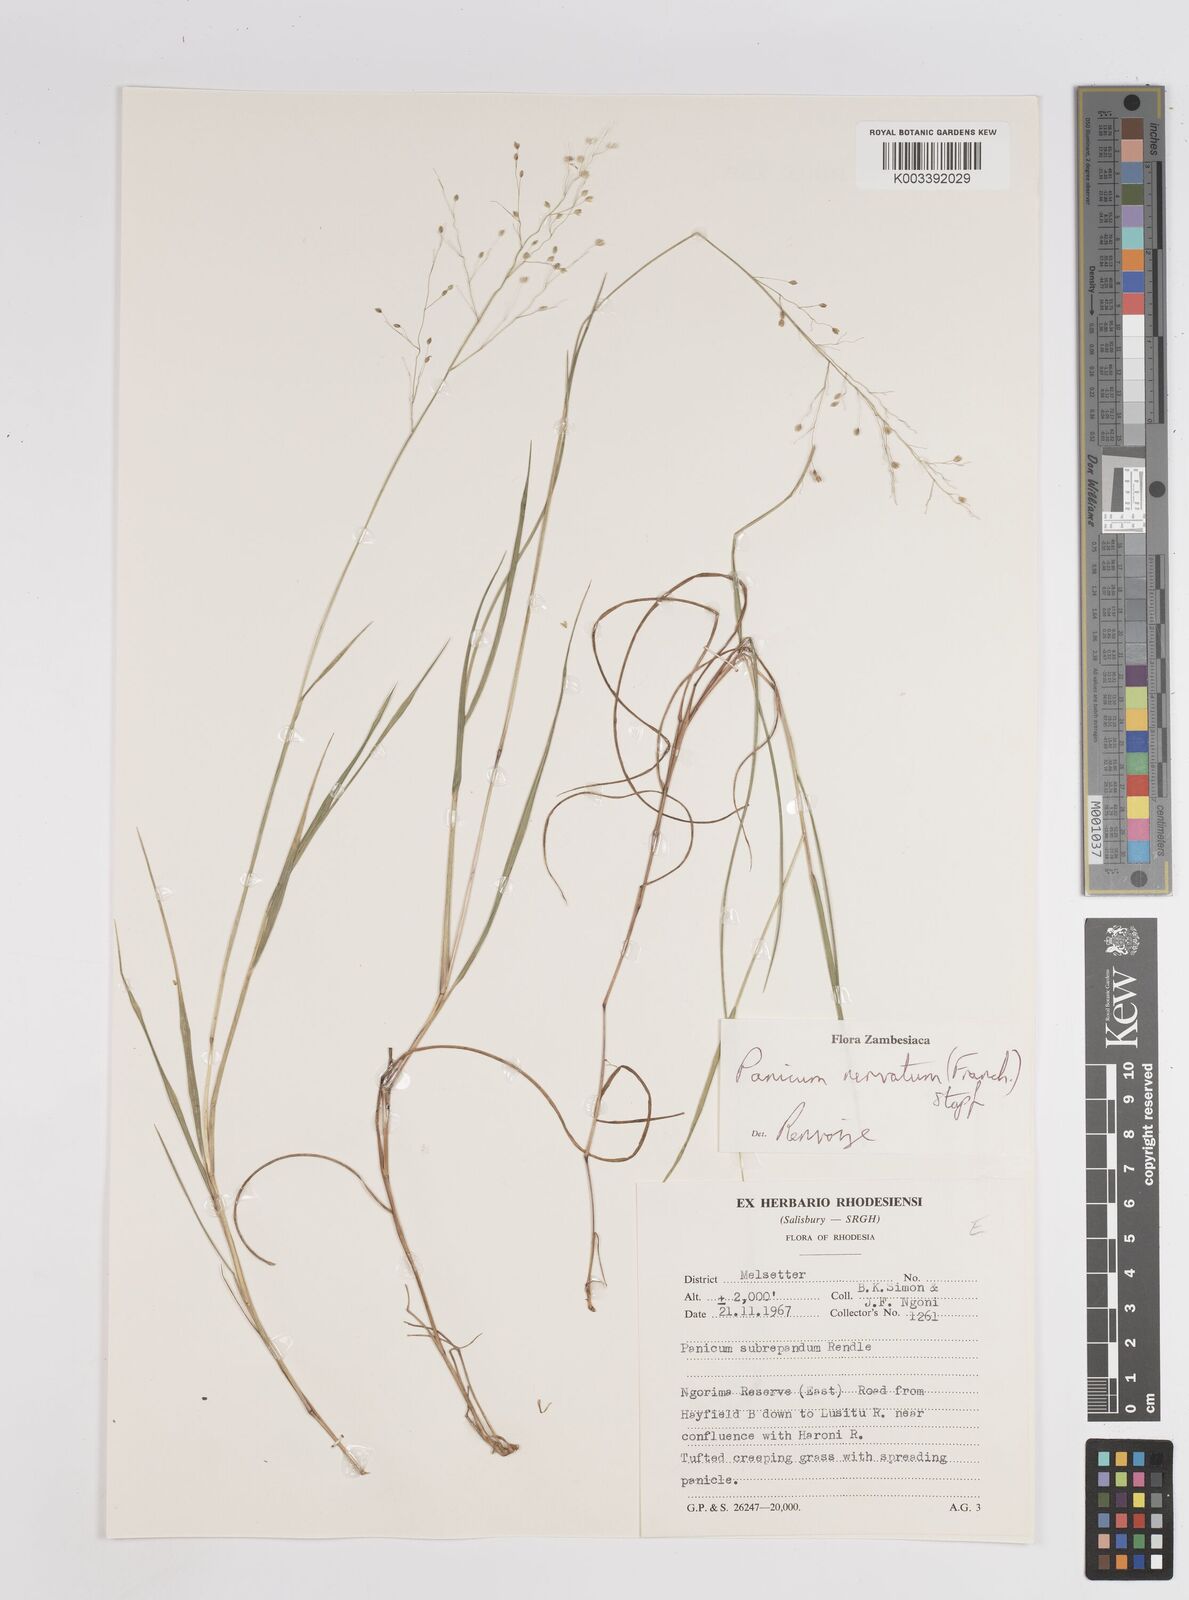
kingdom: Plantae
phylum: Tracheophyta
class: Liliopsida
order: Poales
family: Poaceae
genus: Trichanthecium
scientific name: Trichanthecium nervatum
